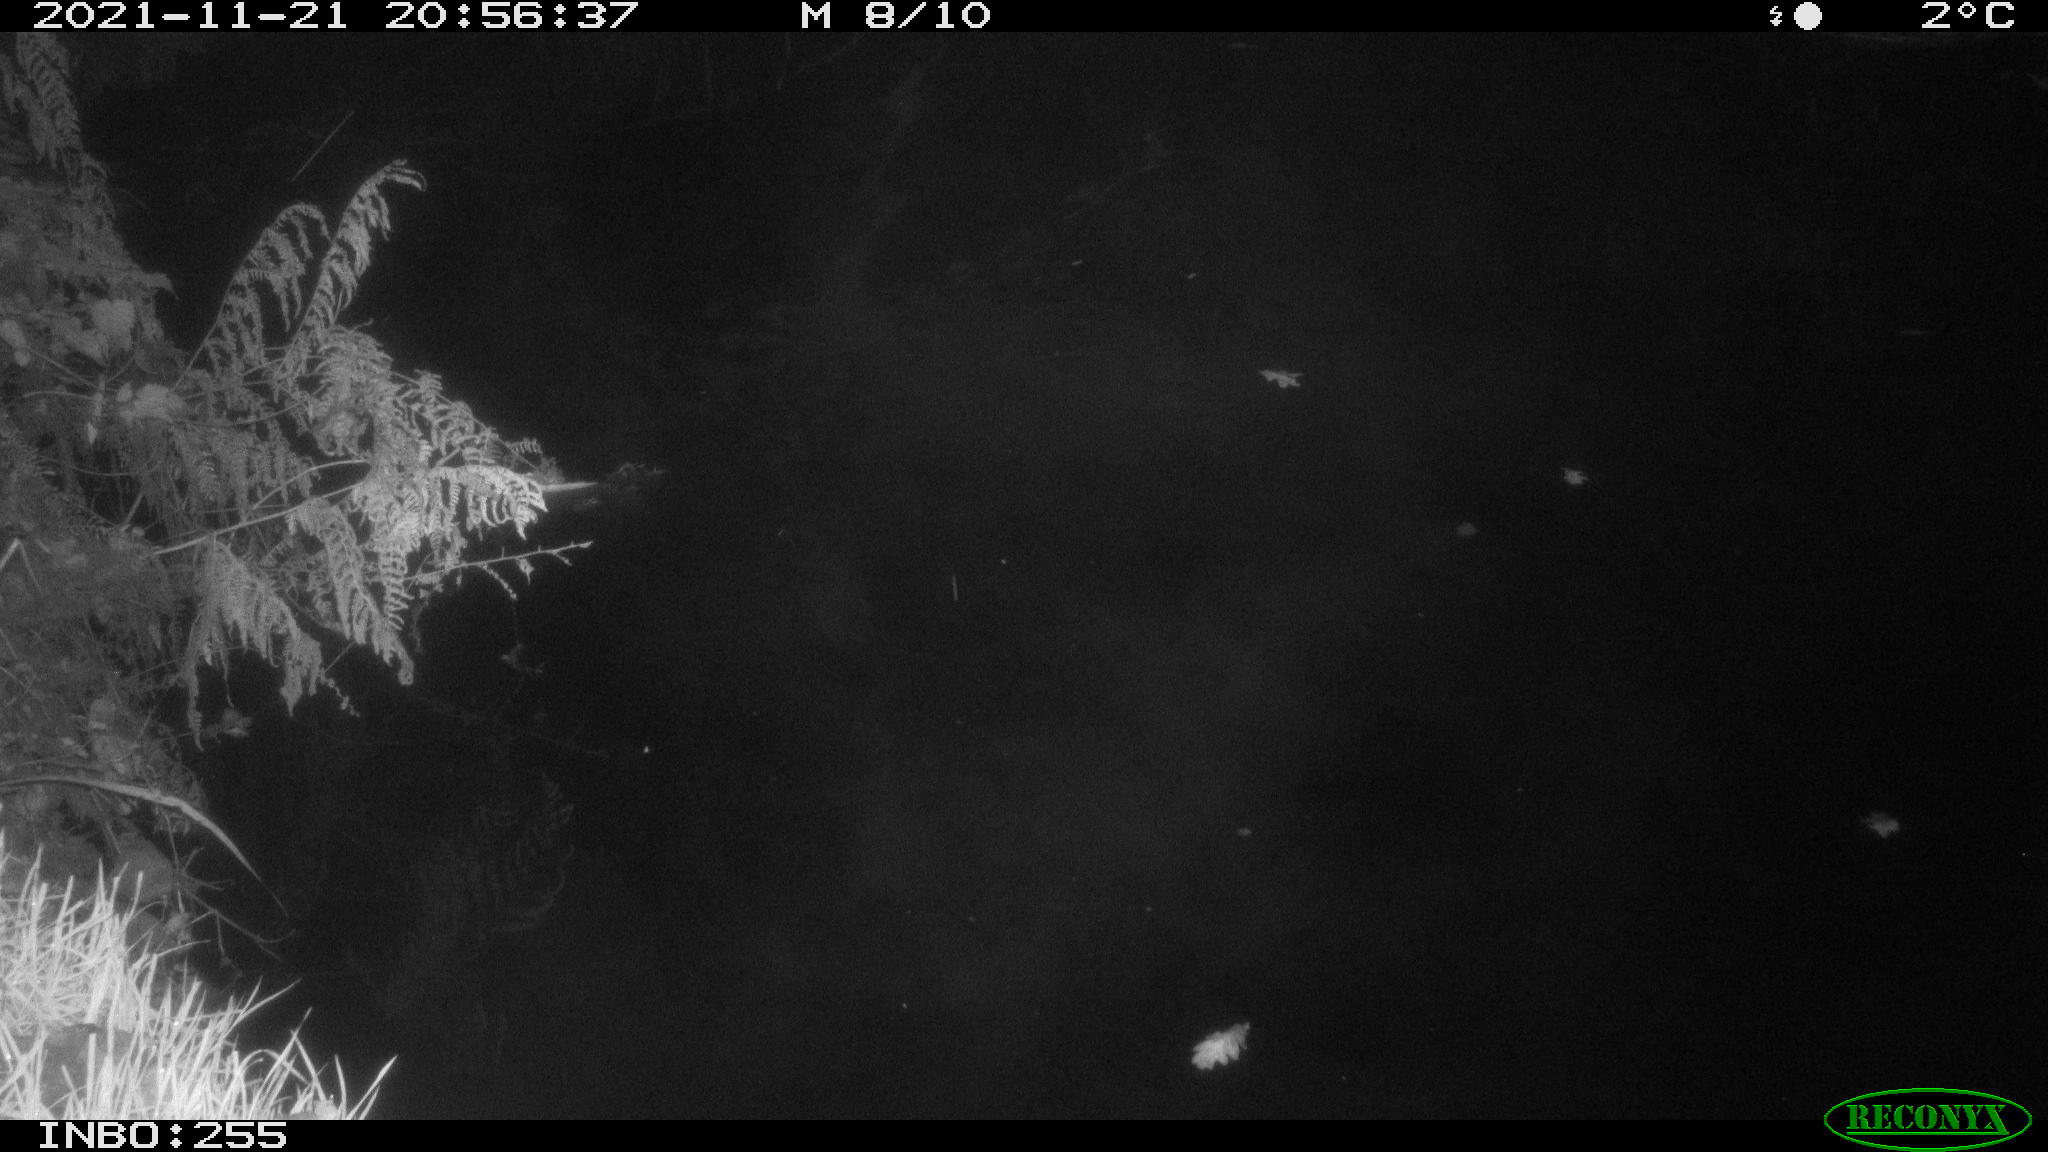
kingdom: Animalia
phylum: Chordata
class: Aves
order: Anseriformes
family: Anatidae
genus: Anas
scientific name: Anas platyrhynchos
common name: Mallard
